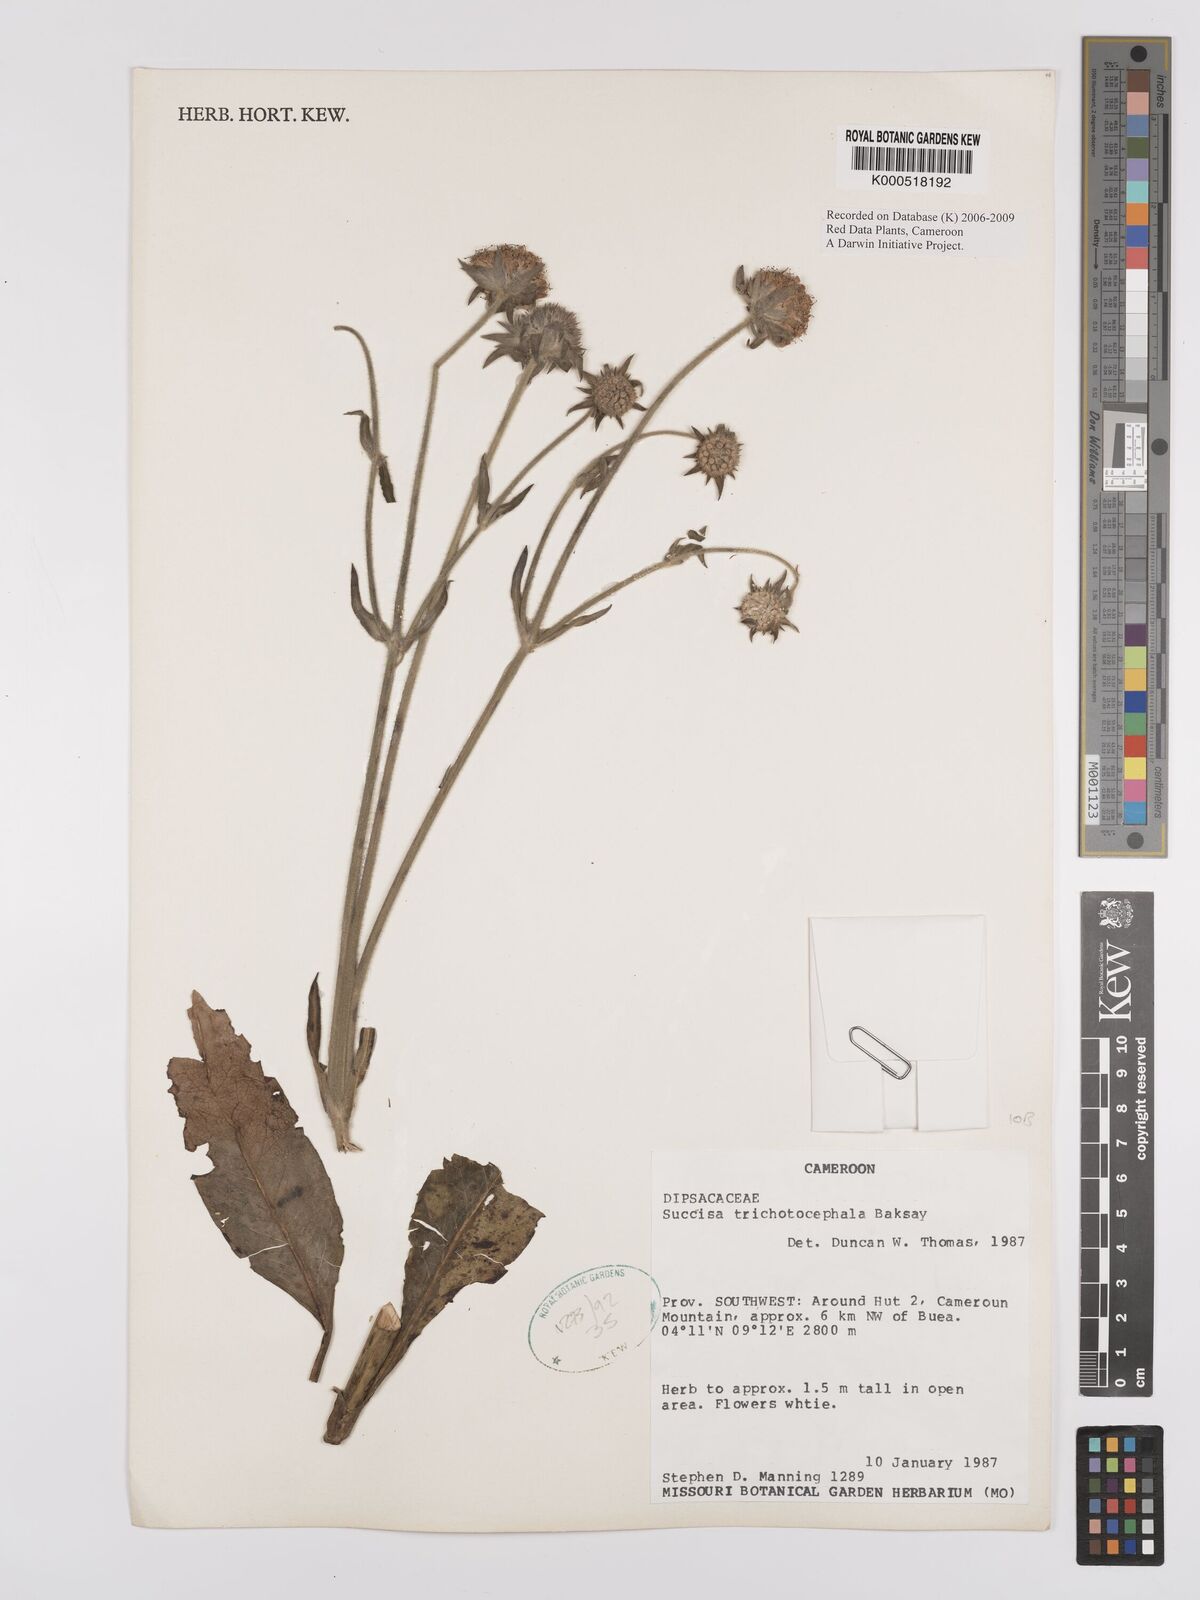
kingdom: Plantae
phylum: Tracheophyta
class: Magnoliopsida
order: Dipsacales
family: Caprifoliaceae
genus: Succisa
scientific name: Succisa trichotocephala
